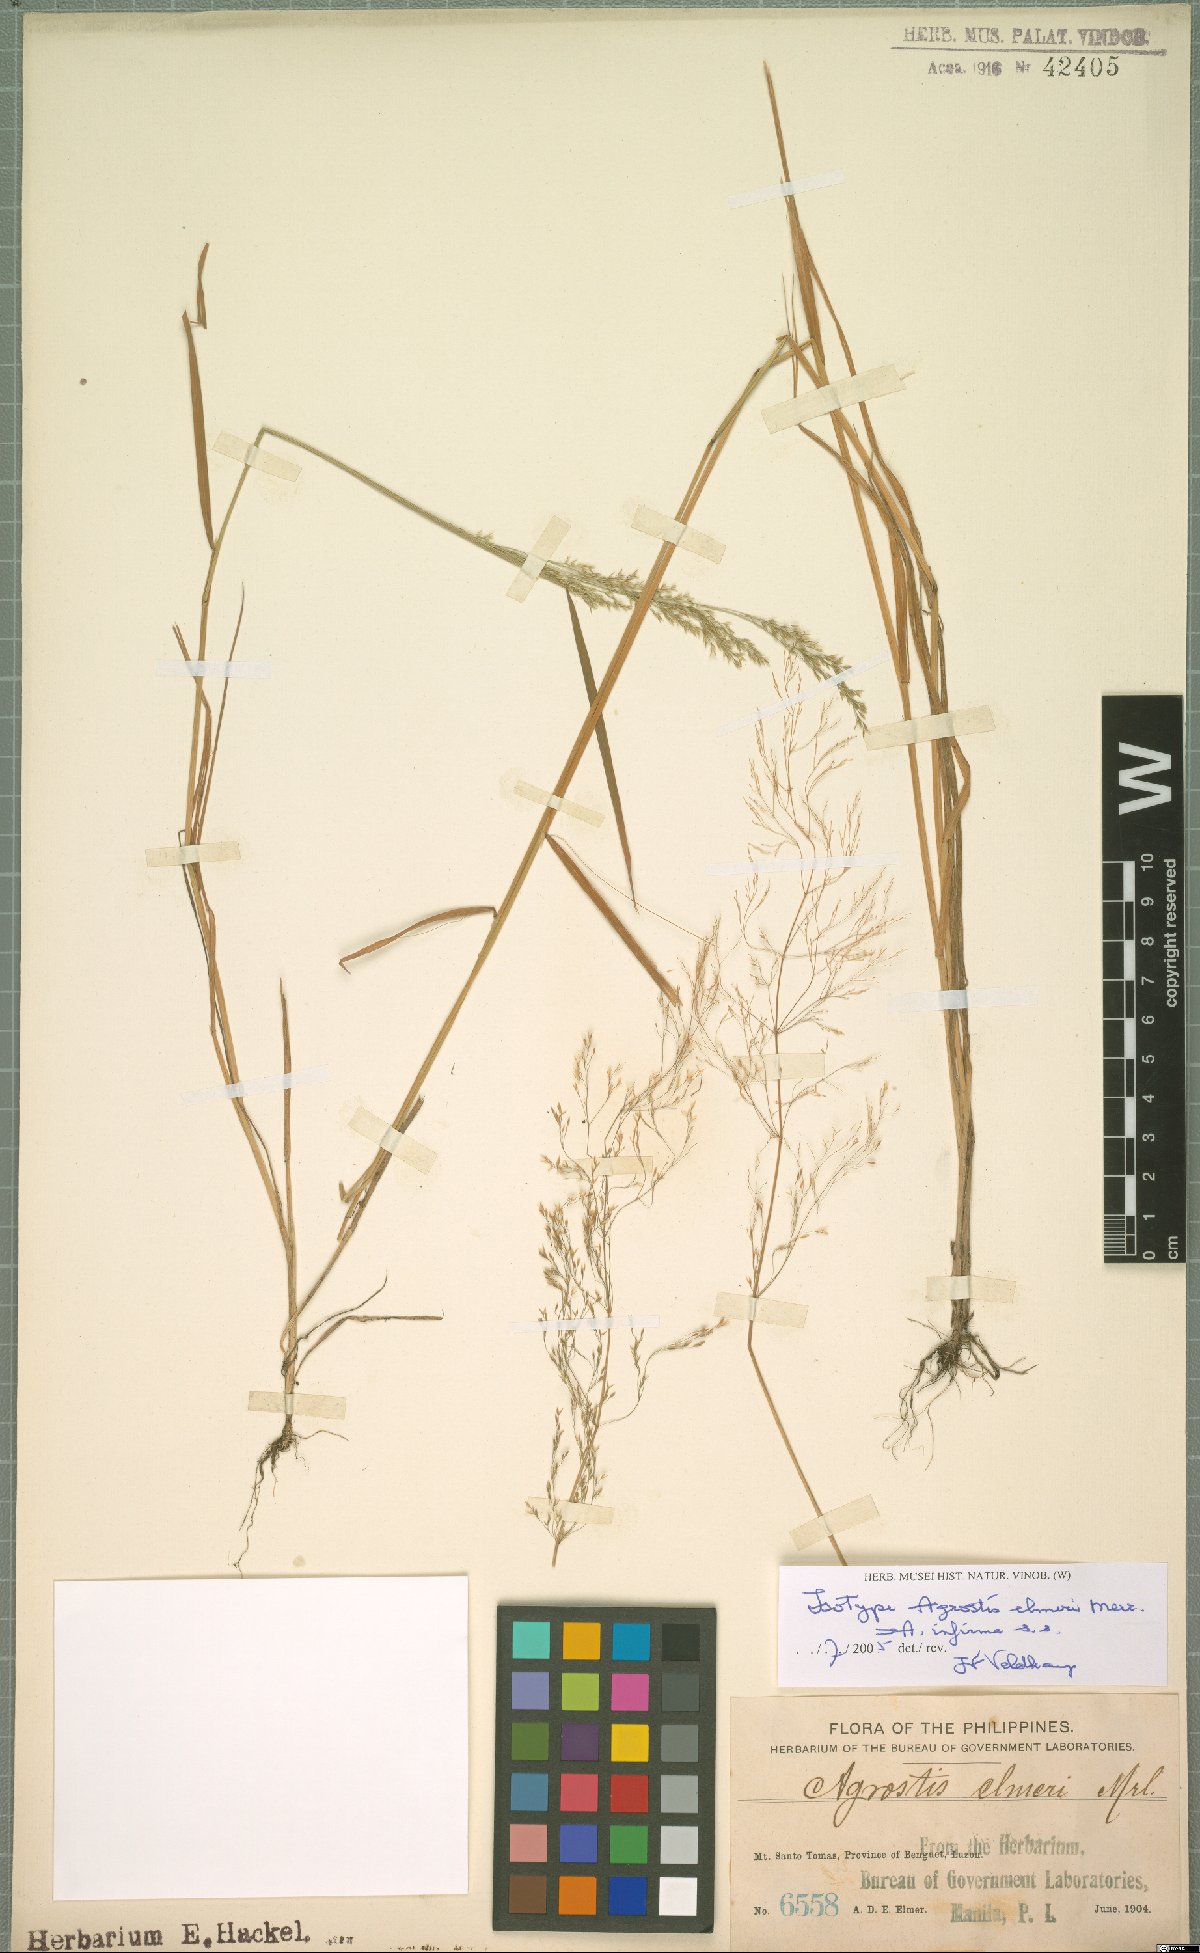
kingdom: Plantae
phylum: Tracheophyta
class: Liliopsida
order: Poales
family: Poaceae
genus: Agrostis
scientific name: Agrostis infirma
